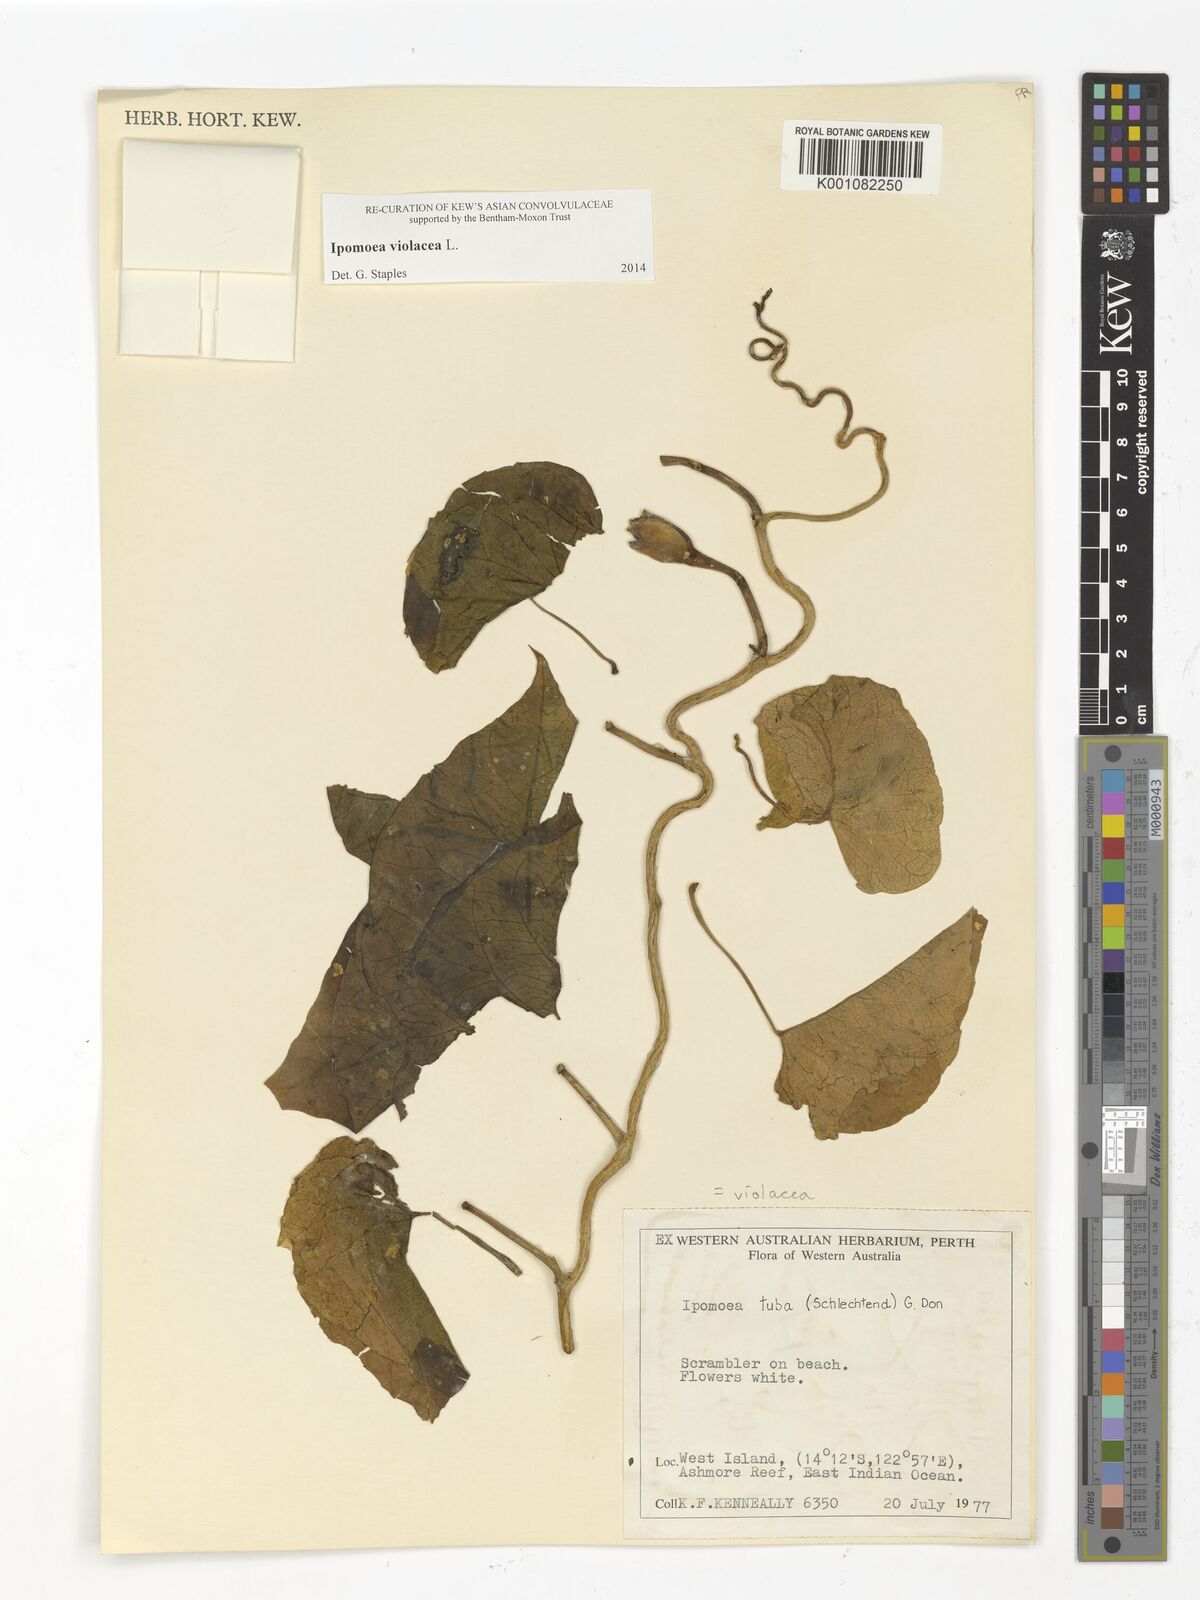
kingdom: Plantae
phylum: Tracheophyta
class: Magnoliopsida
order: Solanales
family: Convolvulaceae
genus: Ipomoea
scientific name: Ipomoea violacea
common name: Beach moonflower
